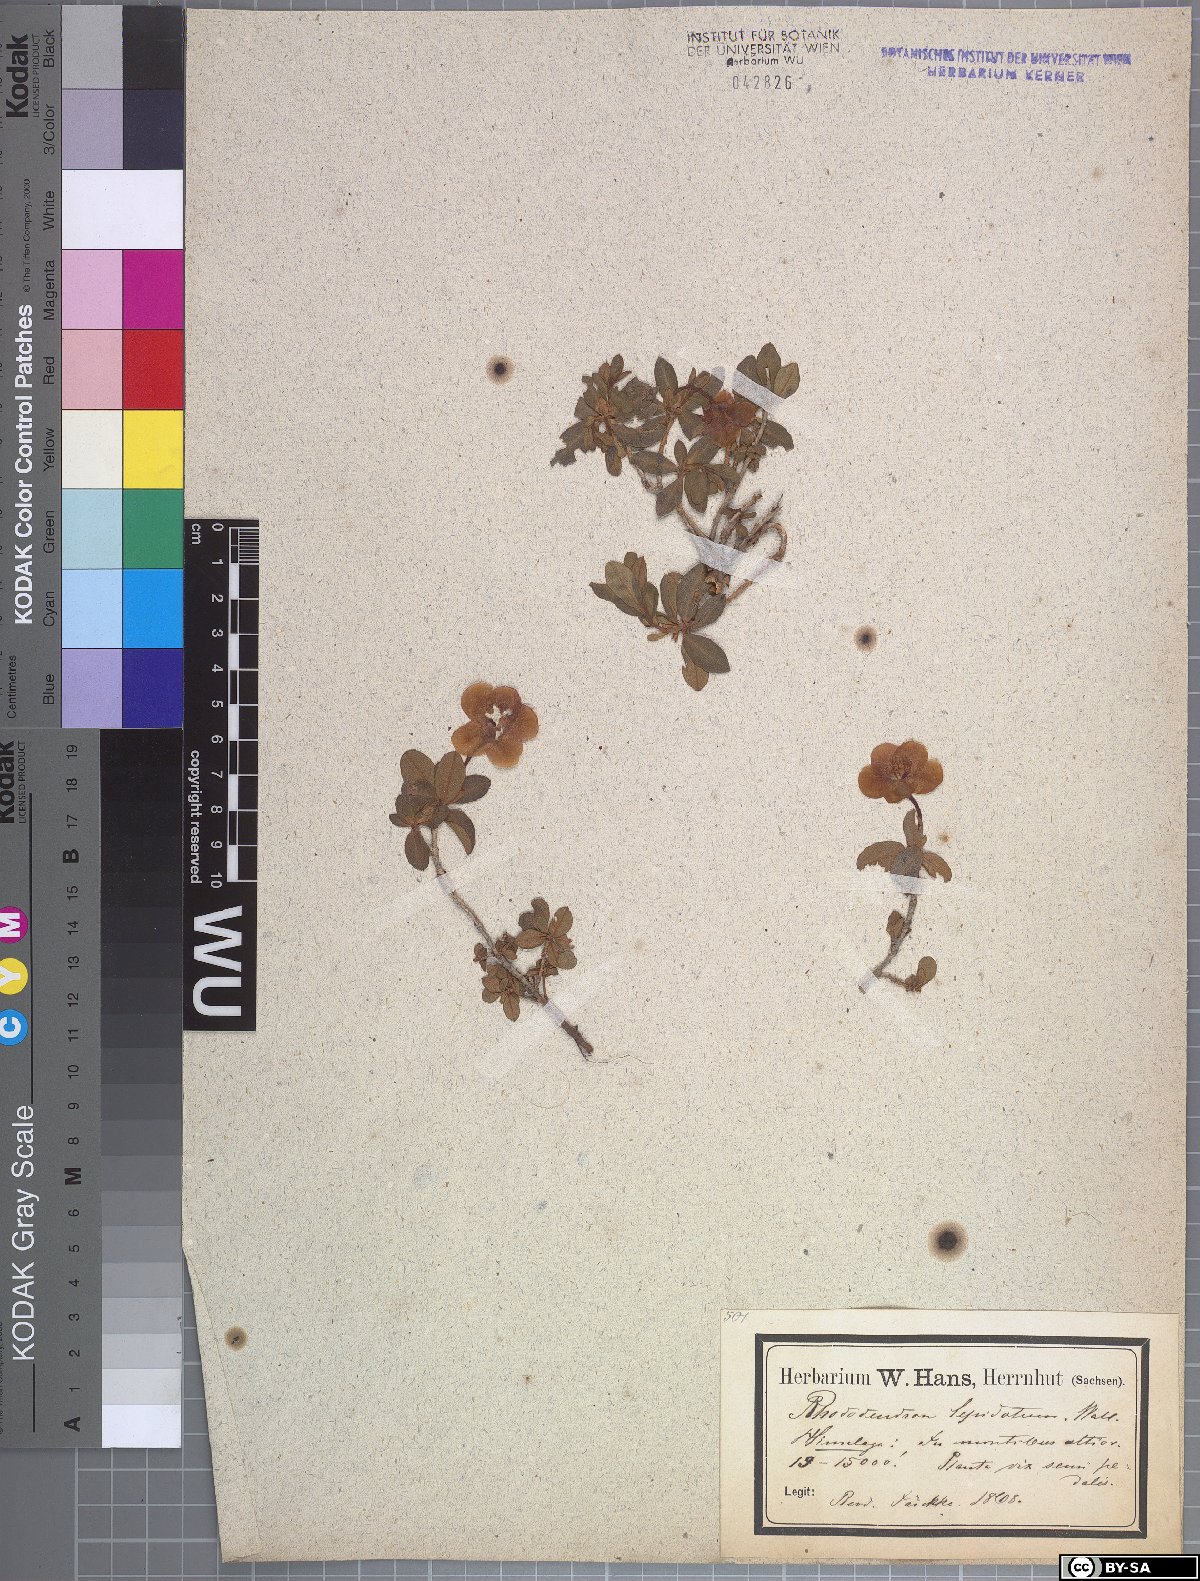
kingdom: Plantae
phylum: Tracheophyta
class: Magnoliopsida
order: Ericales
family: Ericaceae
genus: Rhododendron
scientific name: Rhododendron lepidotum
